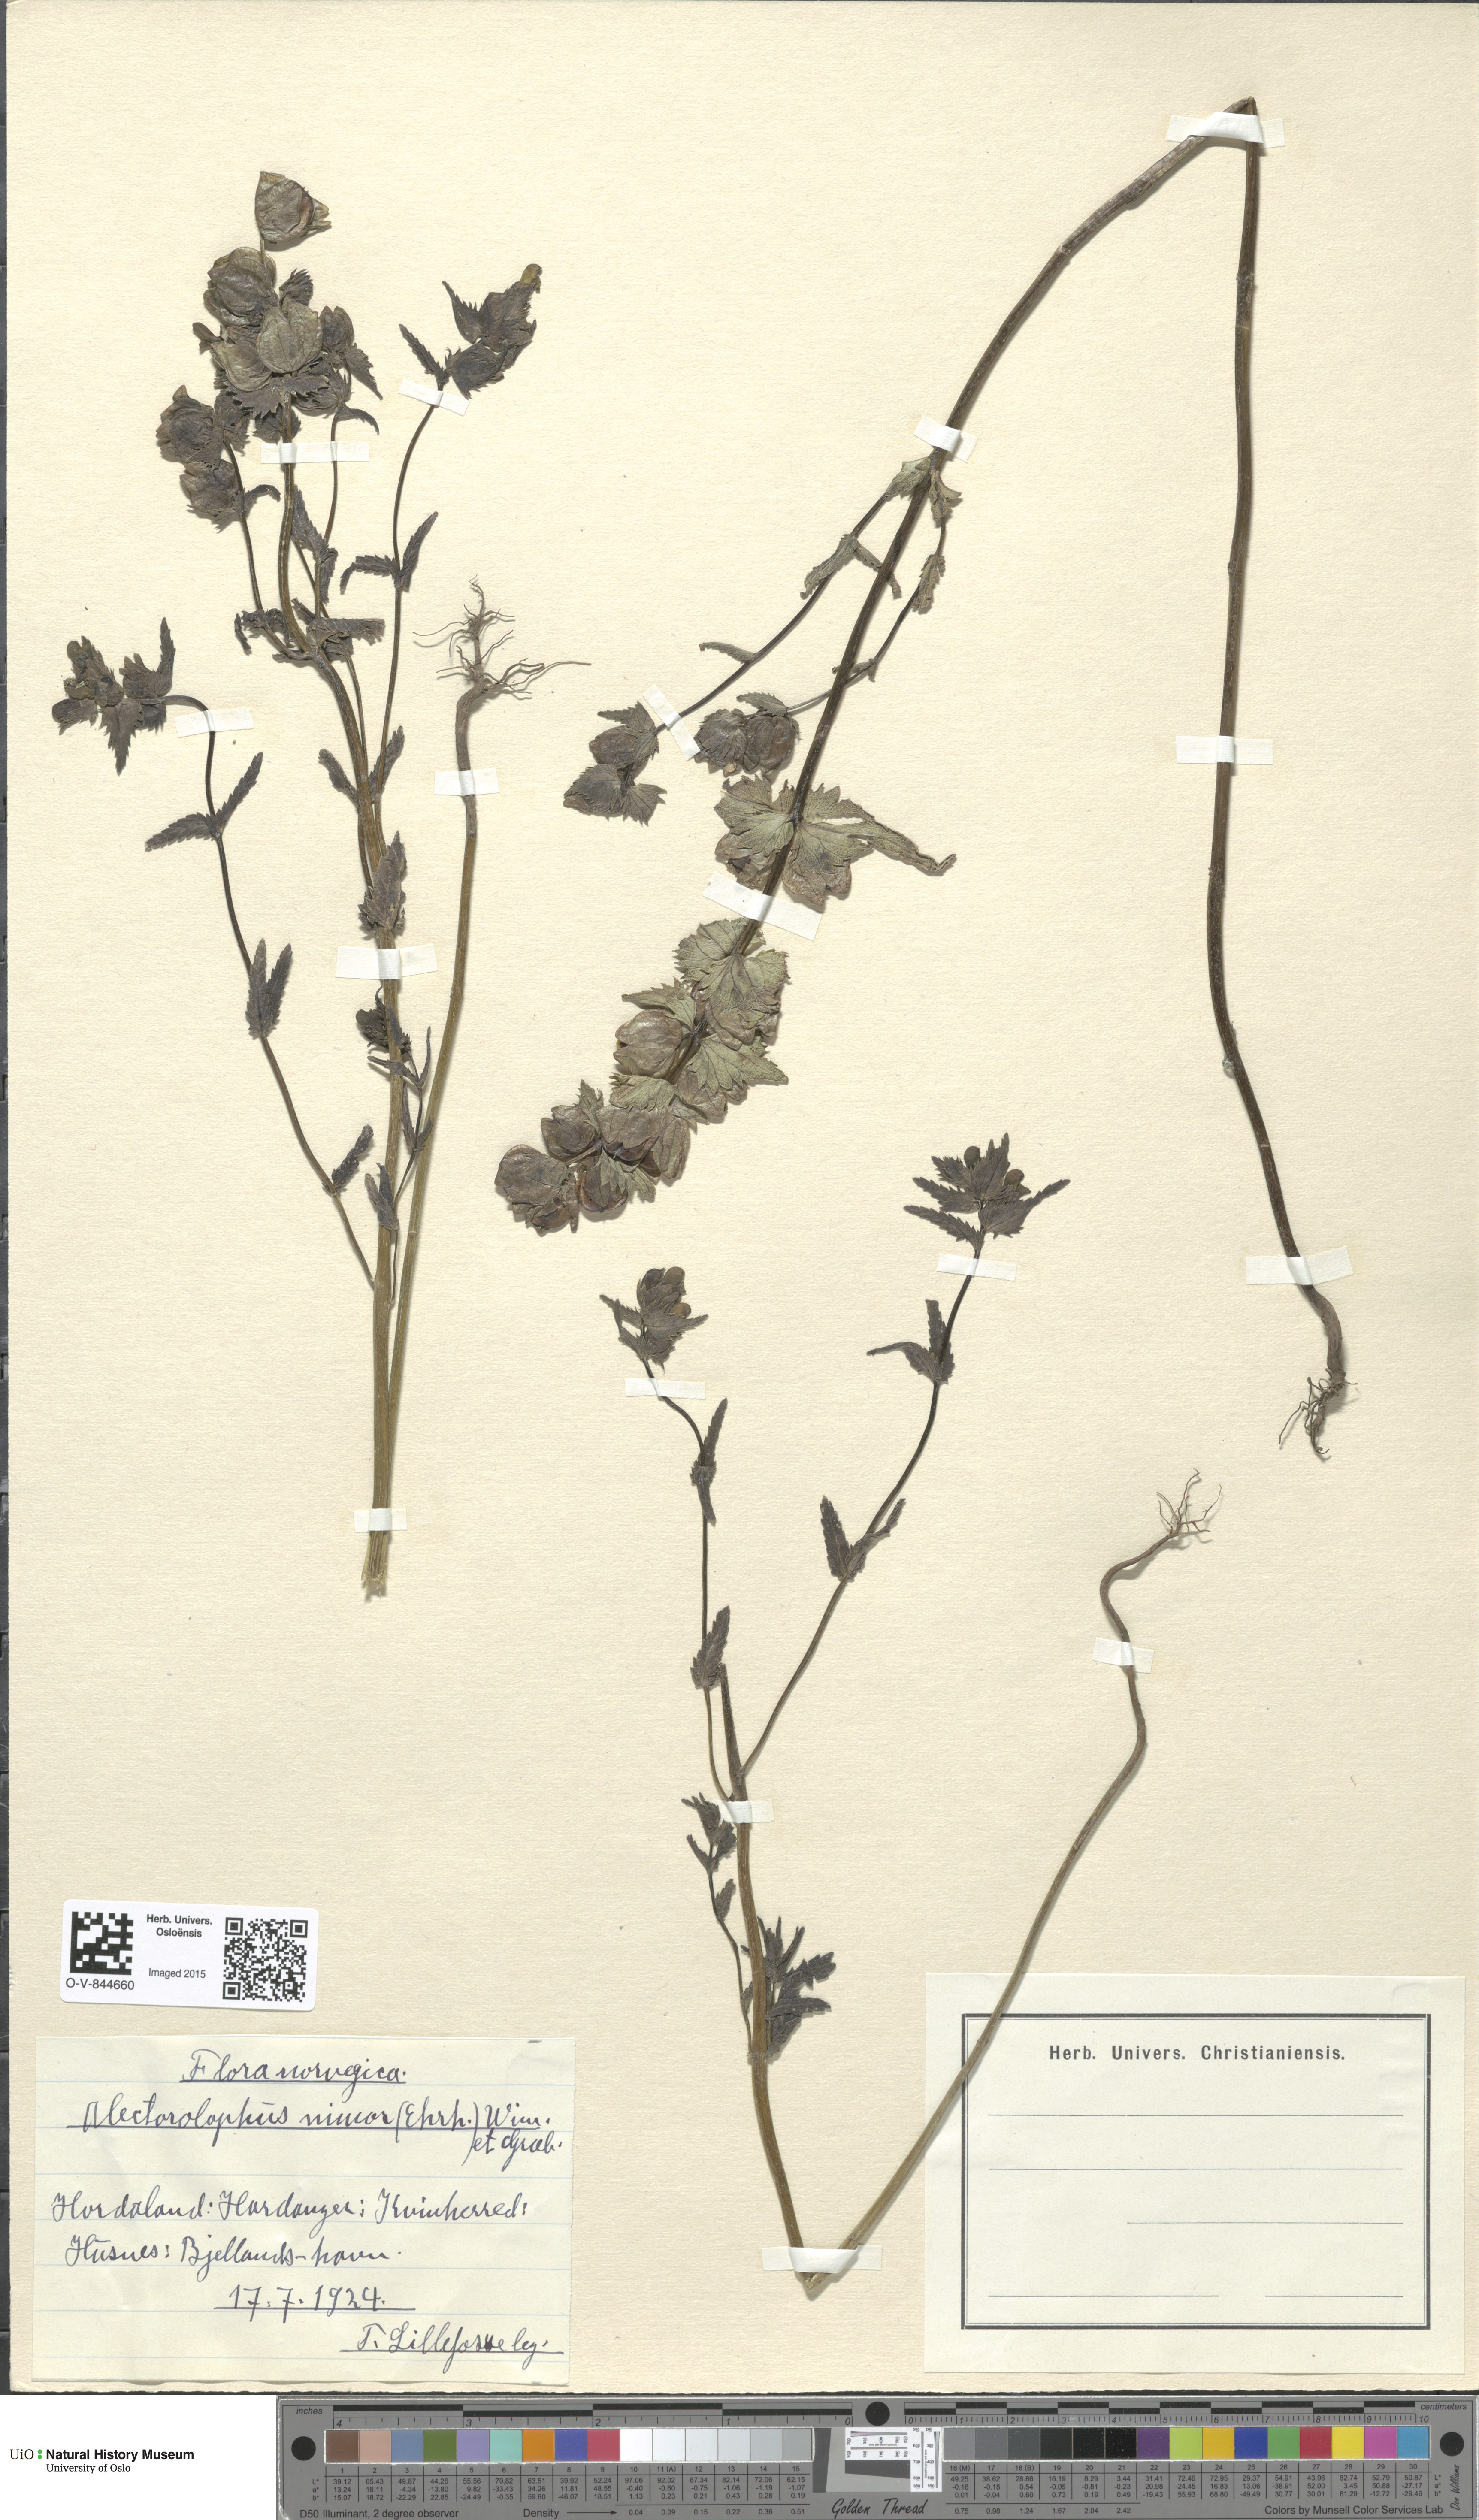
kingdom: Plantae
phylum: Tracheophyta
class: Magnoliopsida
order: Lamiales
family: Orobanchaceae
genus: Rhinanthus
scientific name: Rhinanthus minor
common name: Yellow-rattle
